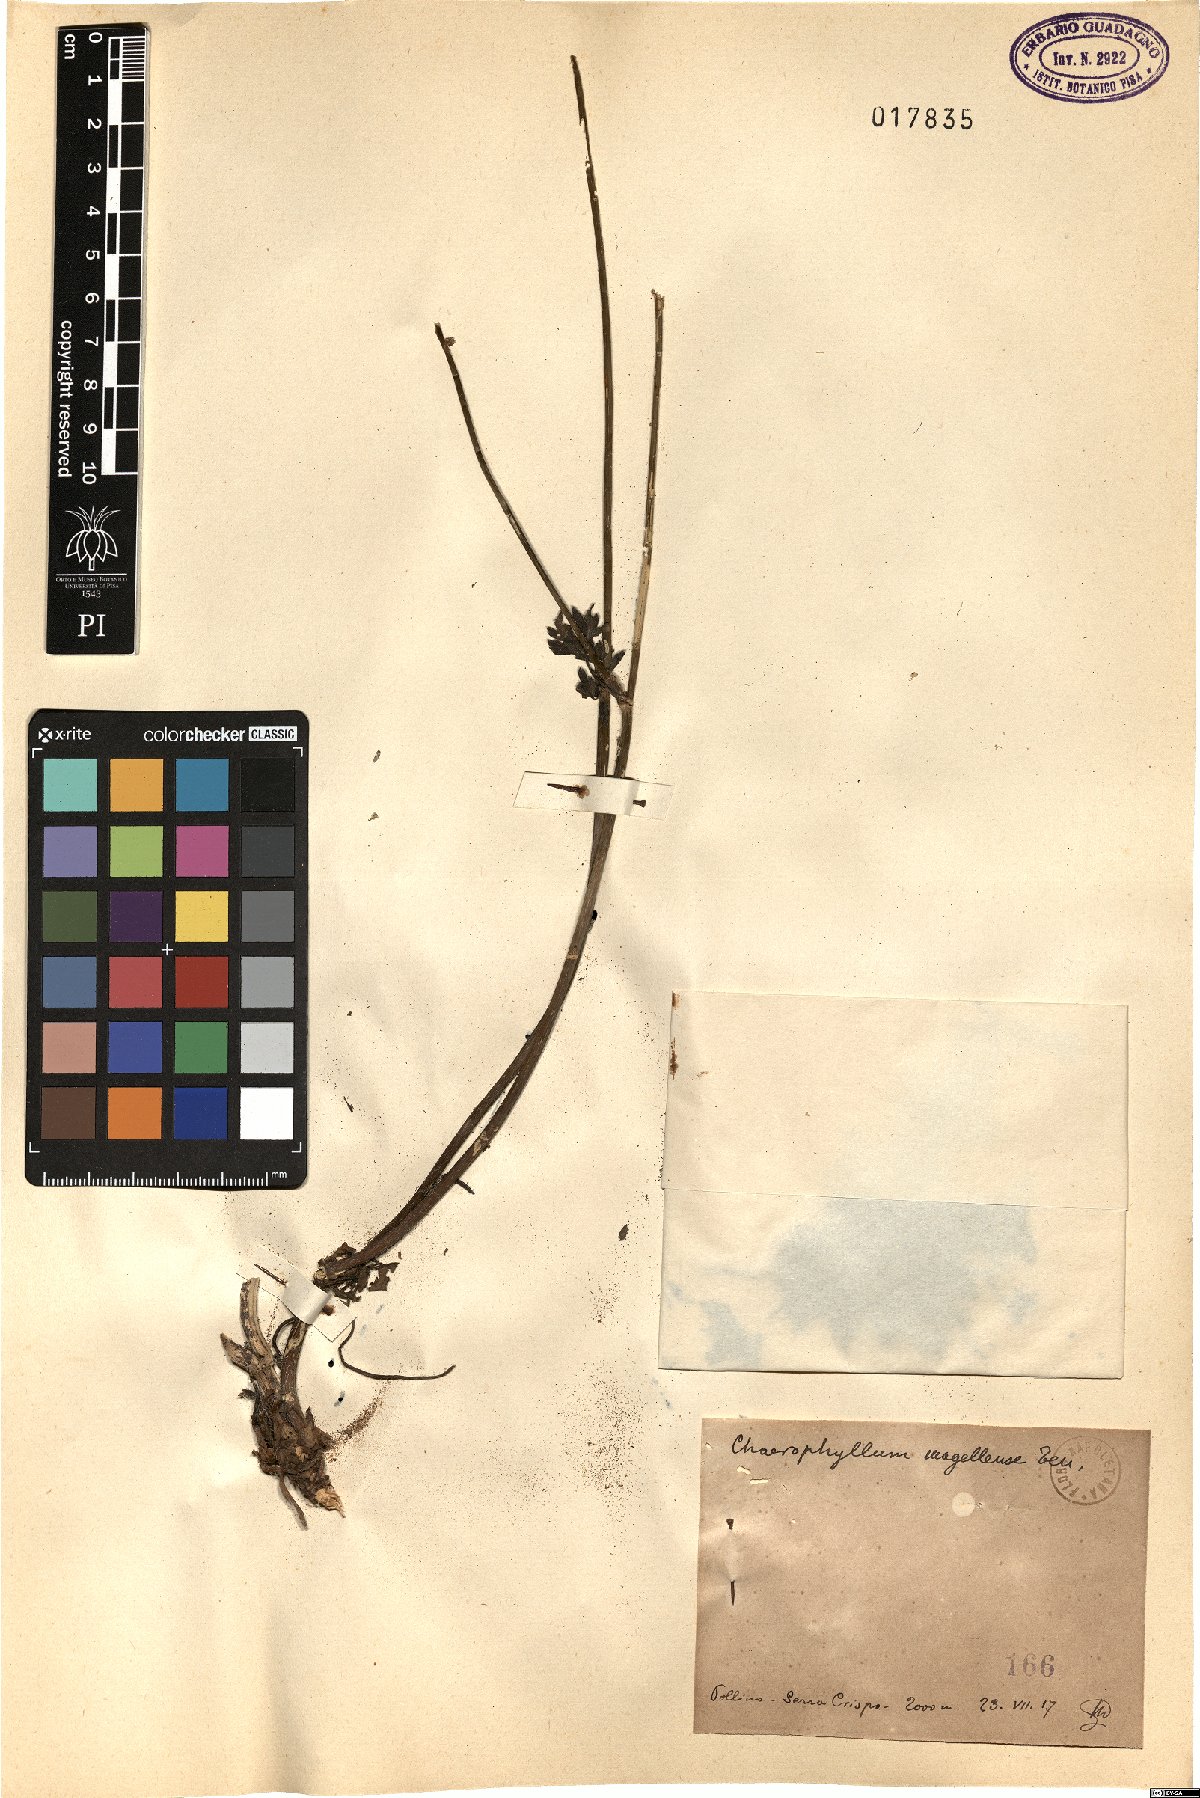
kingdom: Plantae
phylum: Tracheophyta
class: Magnoliopsida
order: Apiales
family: Apiaceae
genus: Chaerophyllum
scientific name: Chaerophyllum hirsutum
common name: Hairy chervil
